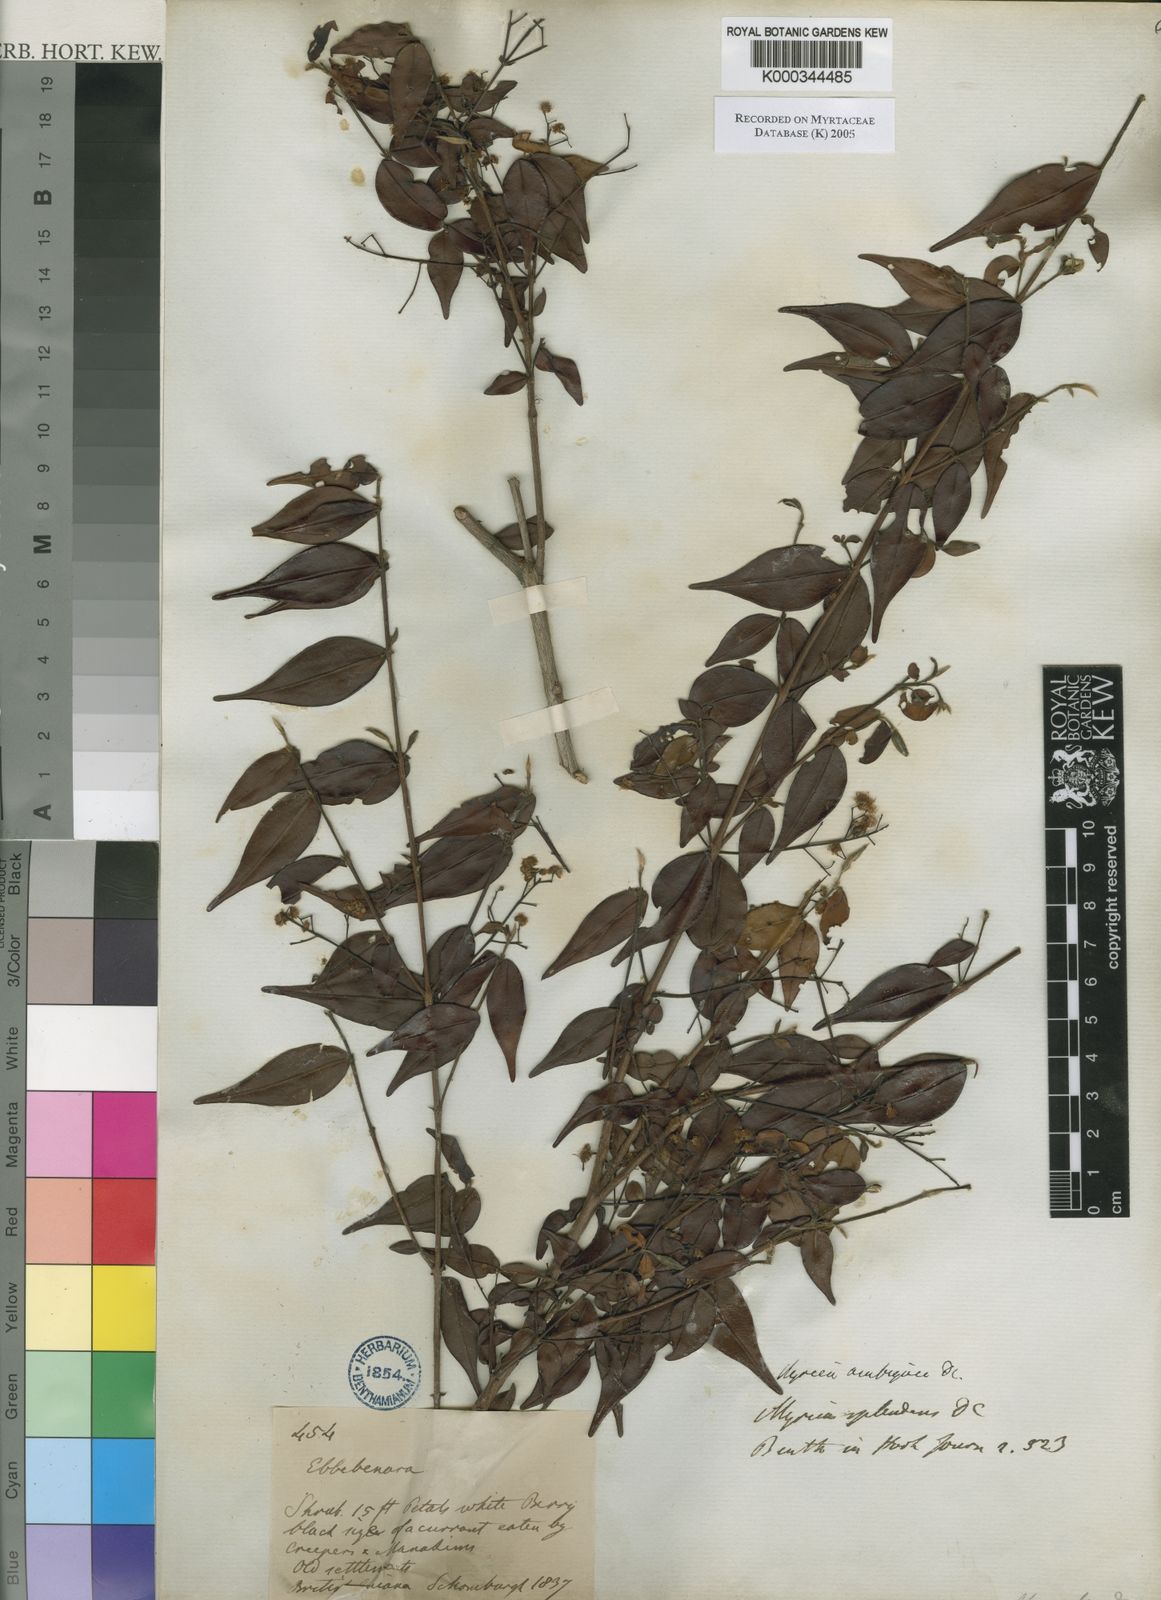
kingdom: Plantae
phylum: Tracheophyta
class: Magnoliopsida
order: Myrtales
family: Myrtaceae
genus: Myrcia
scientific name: Myrcia sylvatica
